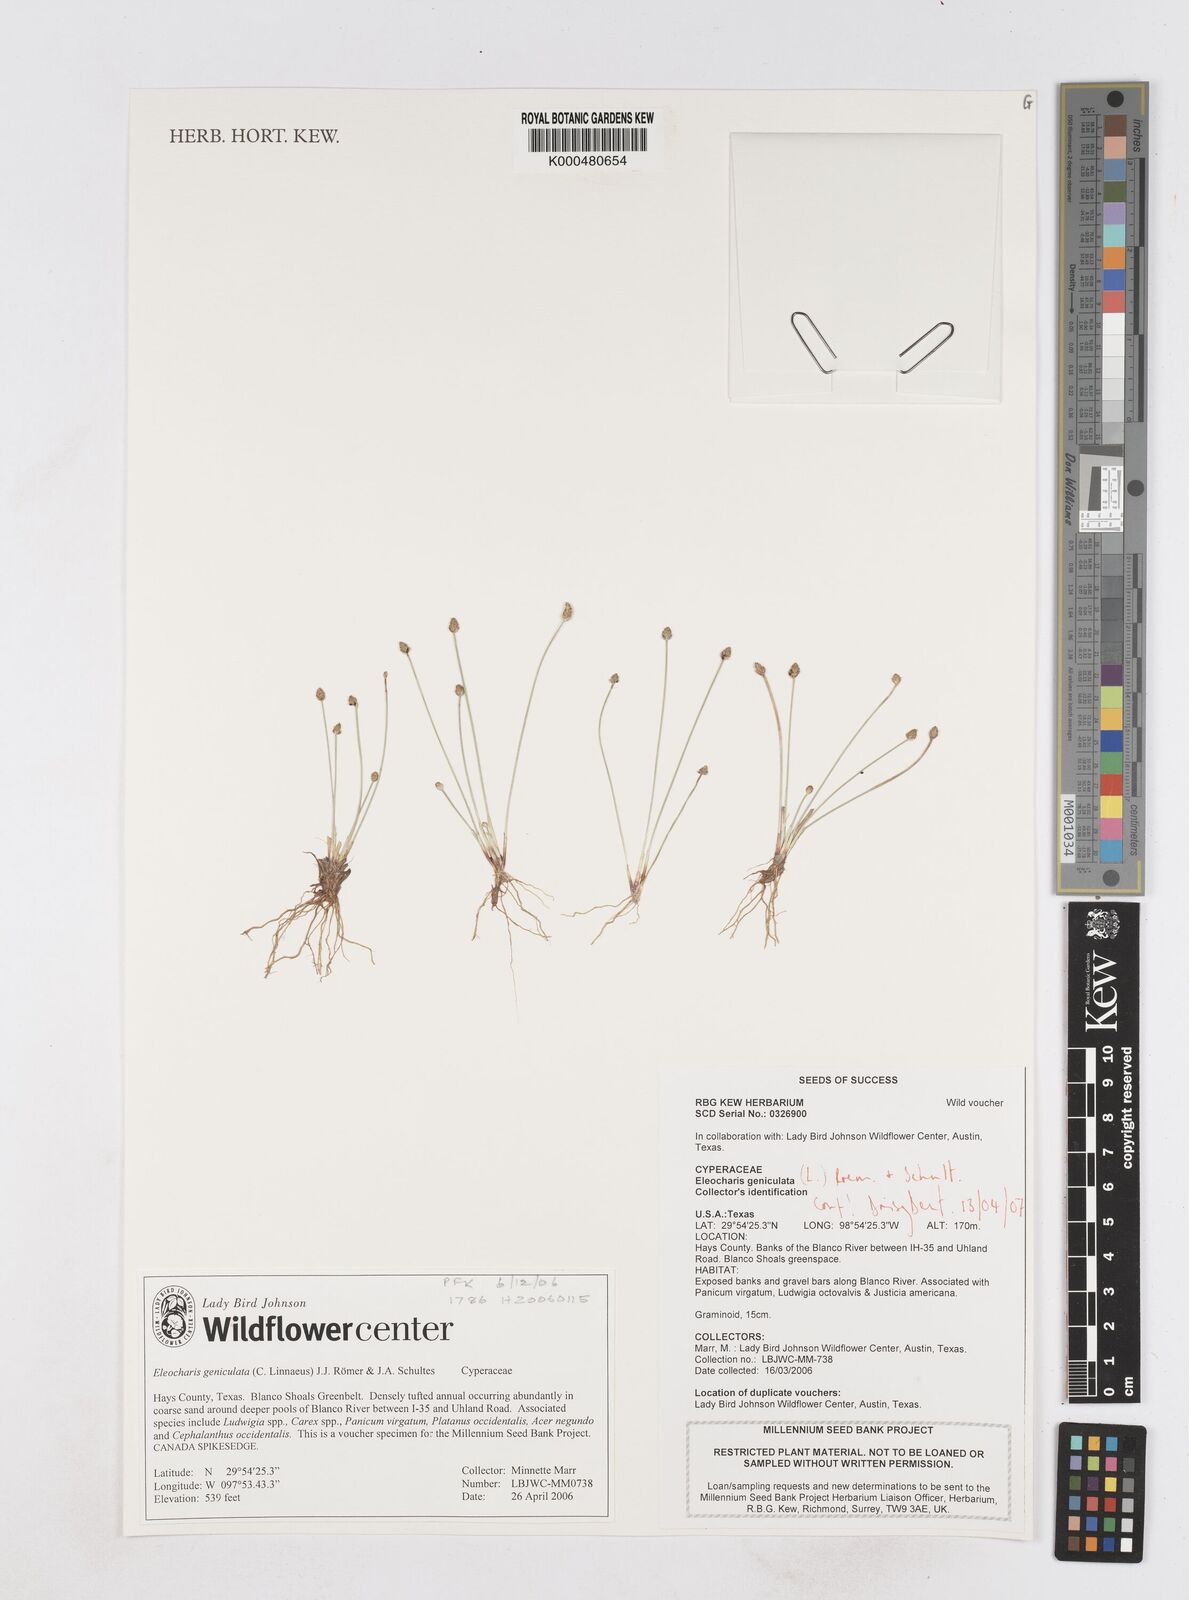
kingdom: Plantae
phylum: Tracheophyta
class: Liliopsida
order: Poales
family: Cyperaceae
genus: Eleocharis
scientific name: Eleocharis geniculata
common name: Canada spikesedge
